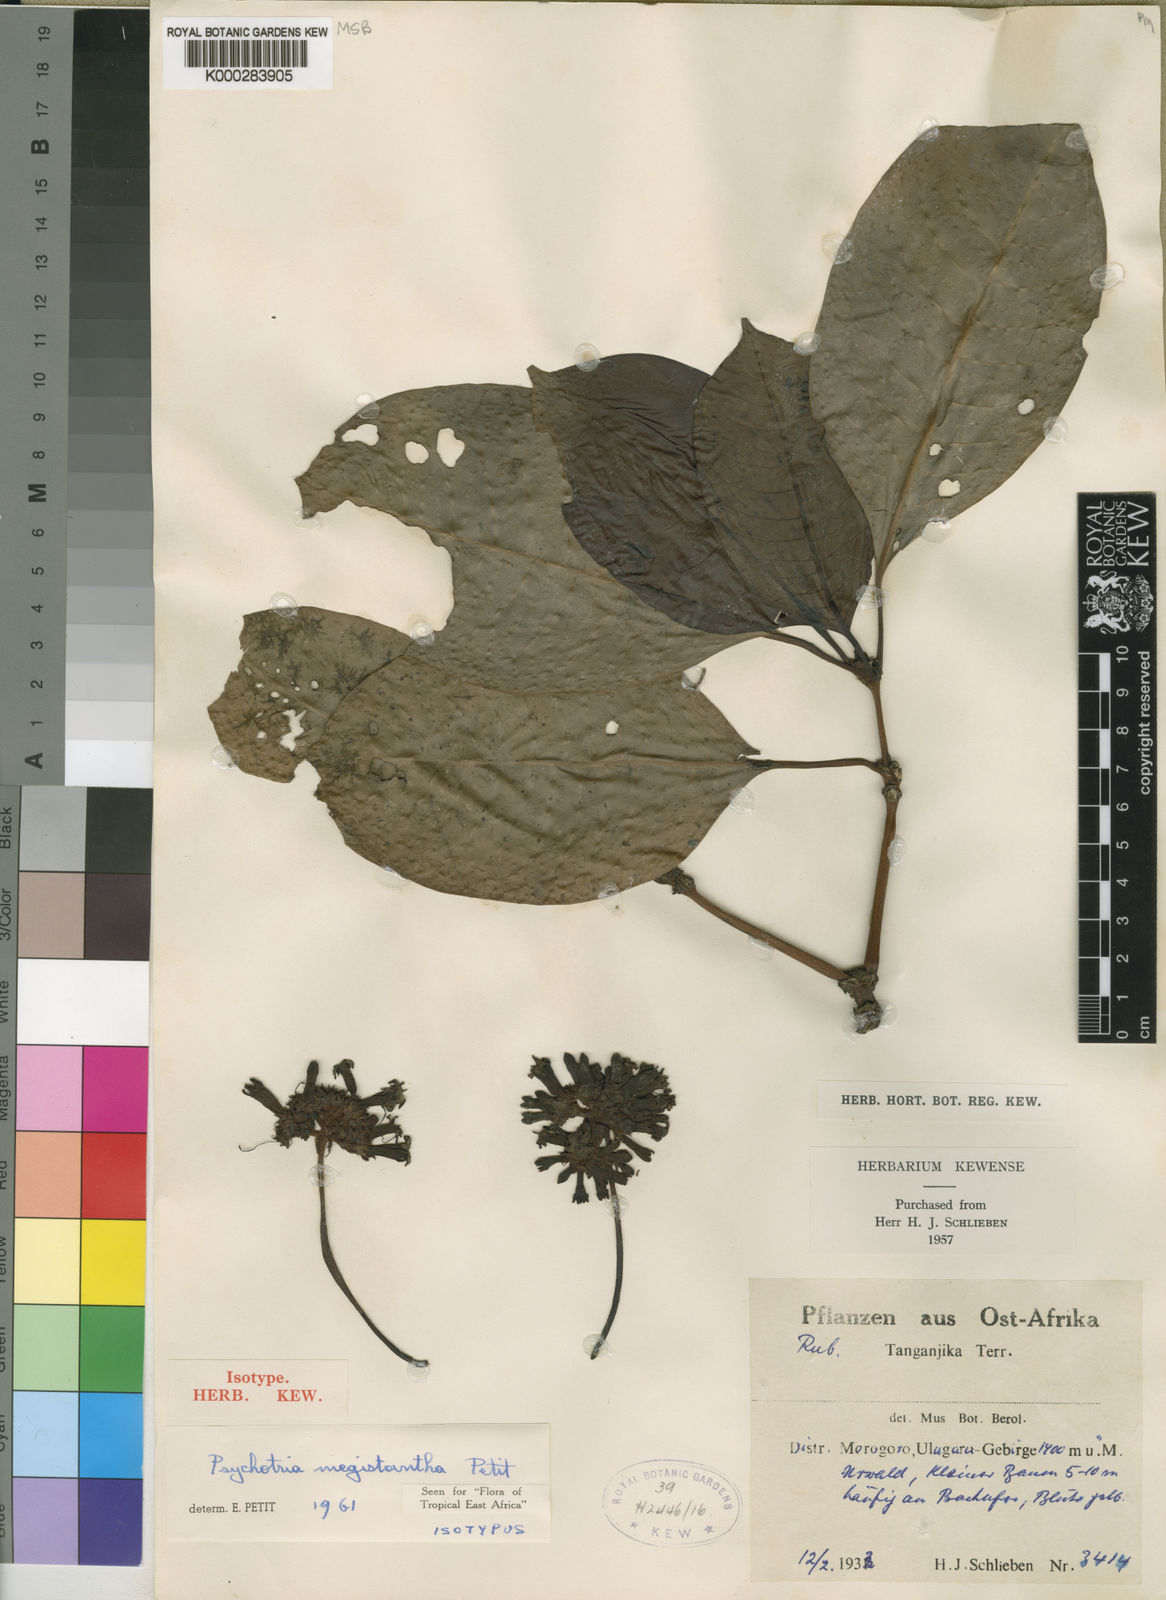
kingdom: Plantae
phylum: Tracheophyta
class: Magnoliopsida
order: Gentianales
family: Rubiaceae
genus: Psychotria
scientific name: Psychotria megistantha
